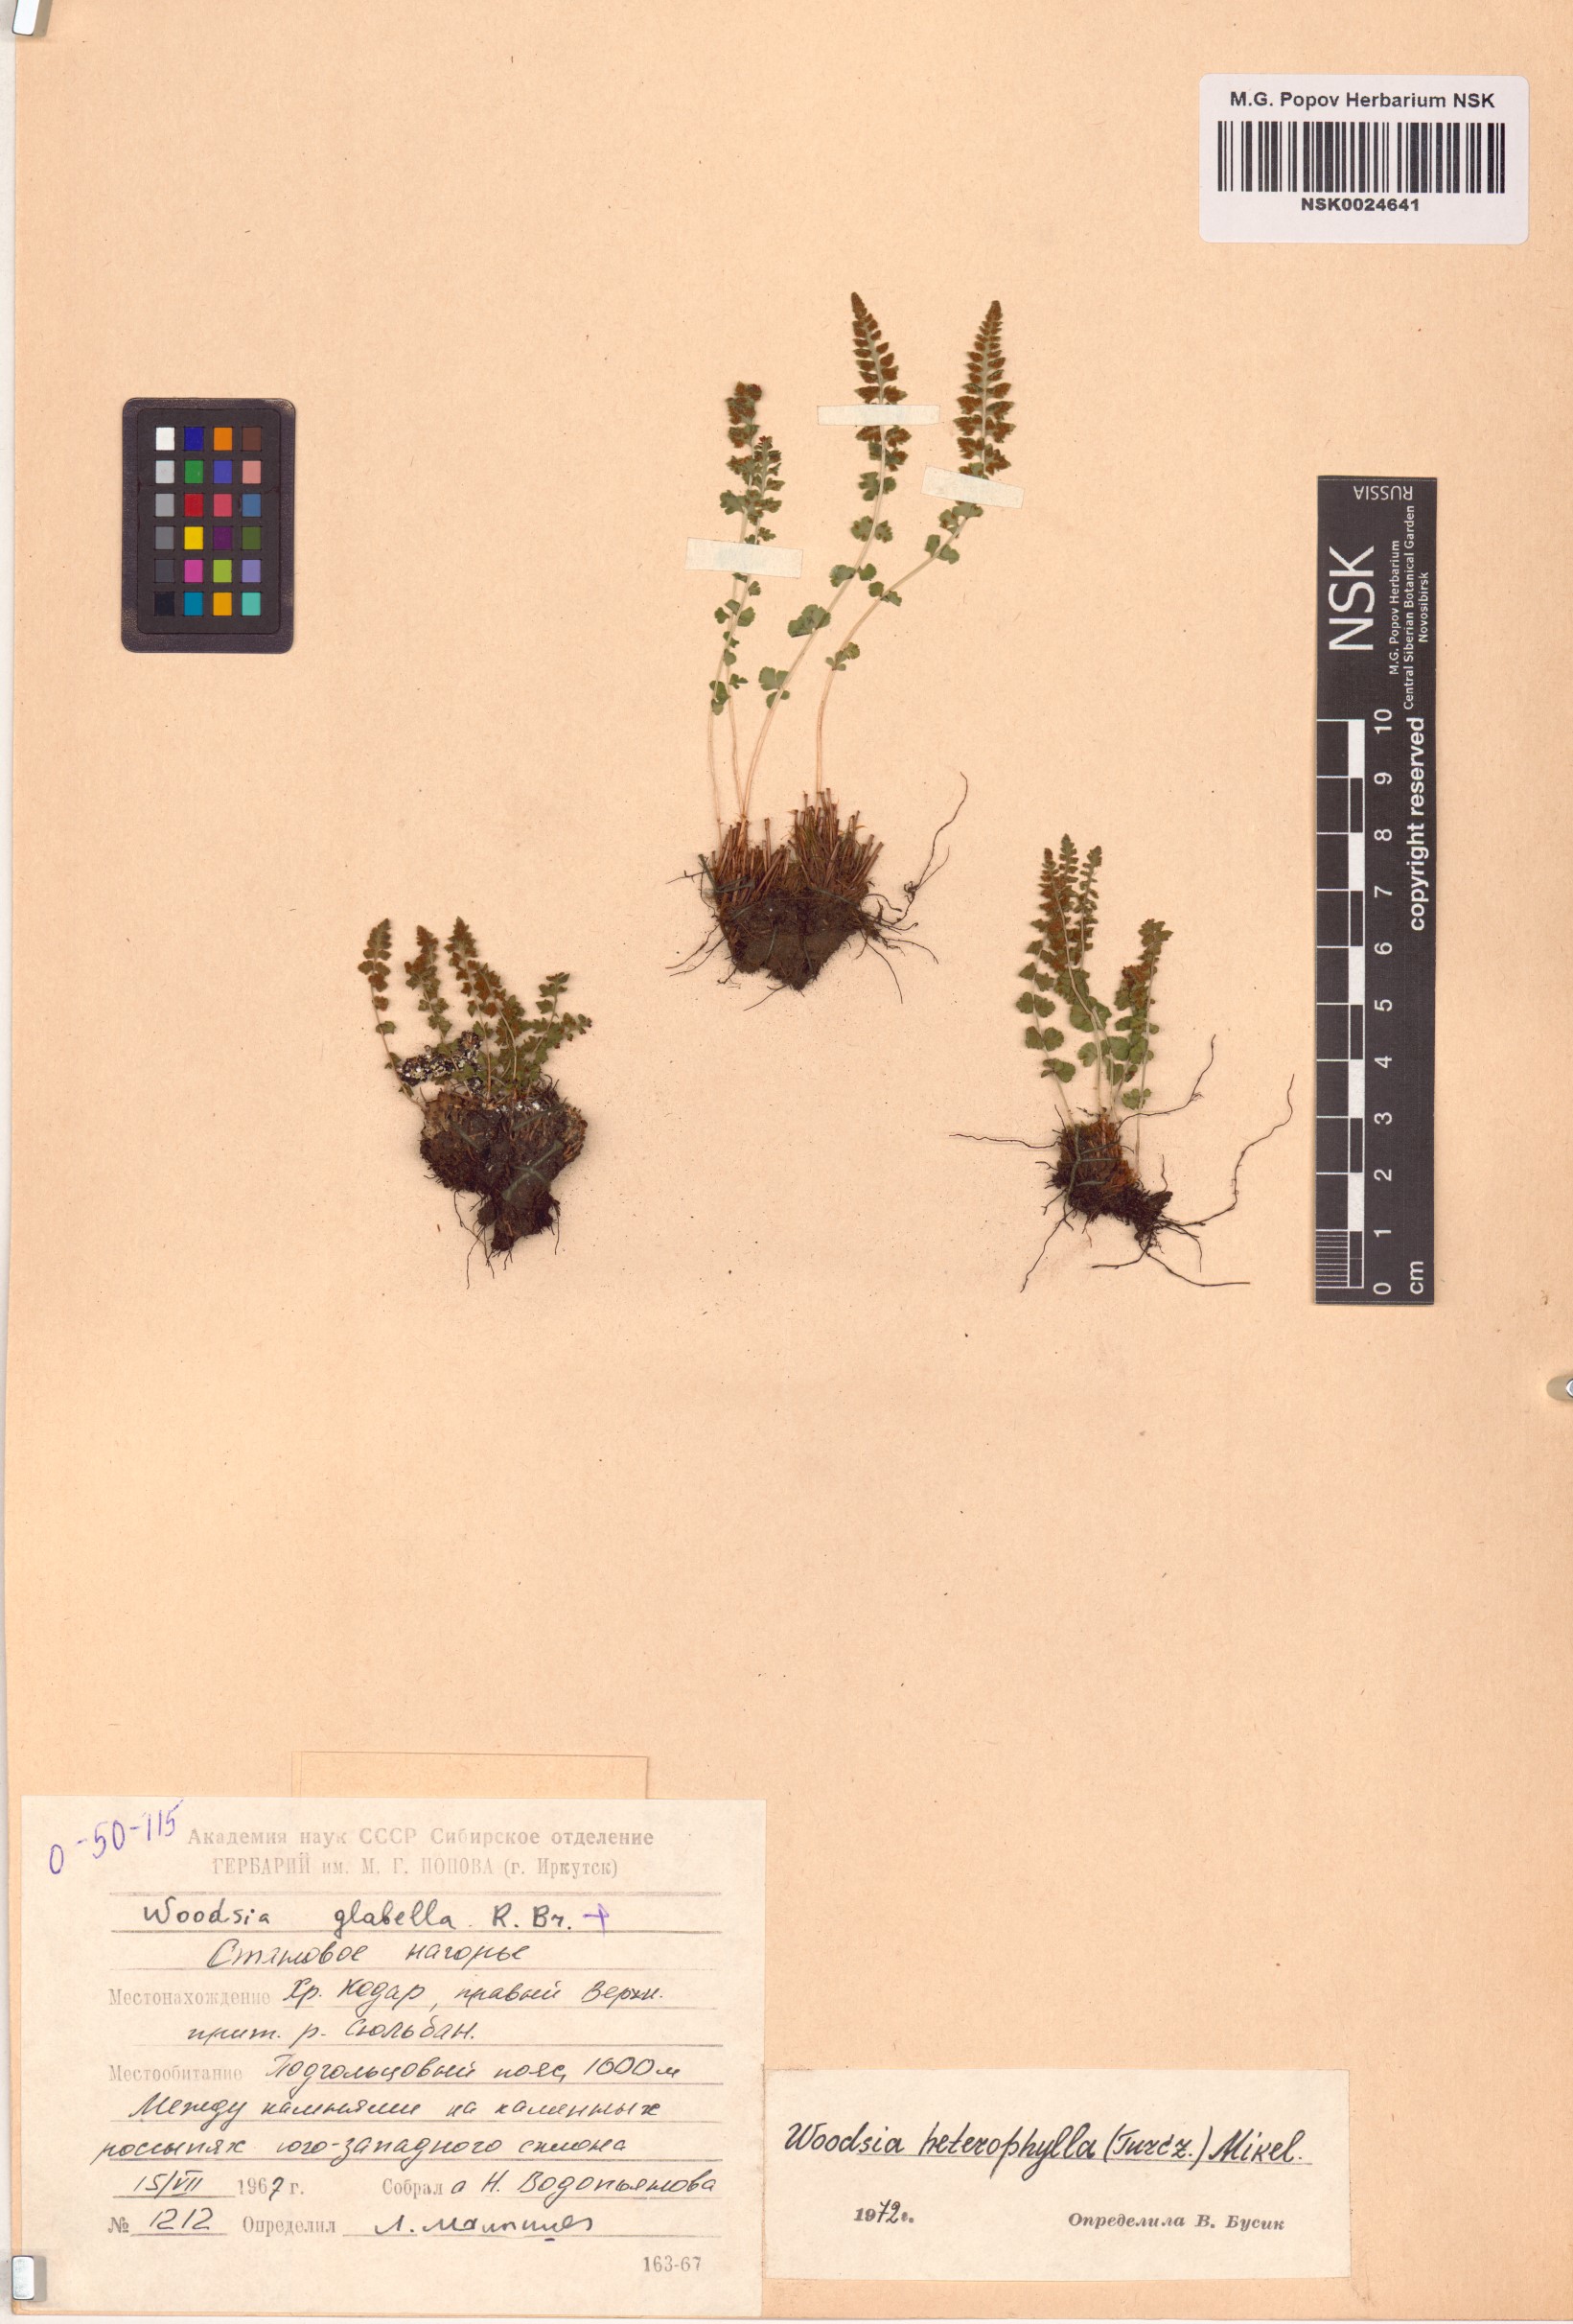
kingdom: Plantae
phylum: Tracheophyta
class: Polypodiopsida
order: Polypodiales
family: Woodsiaceae
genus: Woodsia
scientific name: Woodsia pulchella
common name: Graceful woodsia
